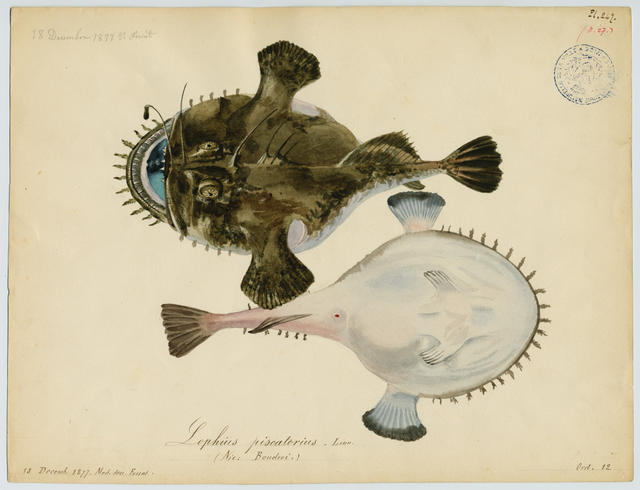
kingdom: Animalia
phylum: Chordata
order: Lophiiformes
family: Lophiidae
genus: Lophius
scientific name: Lophius piscatorius
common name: Angler
